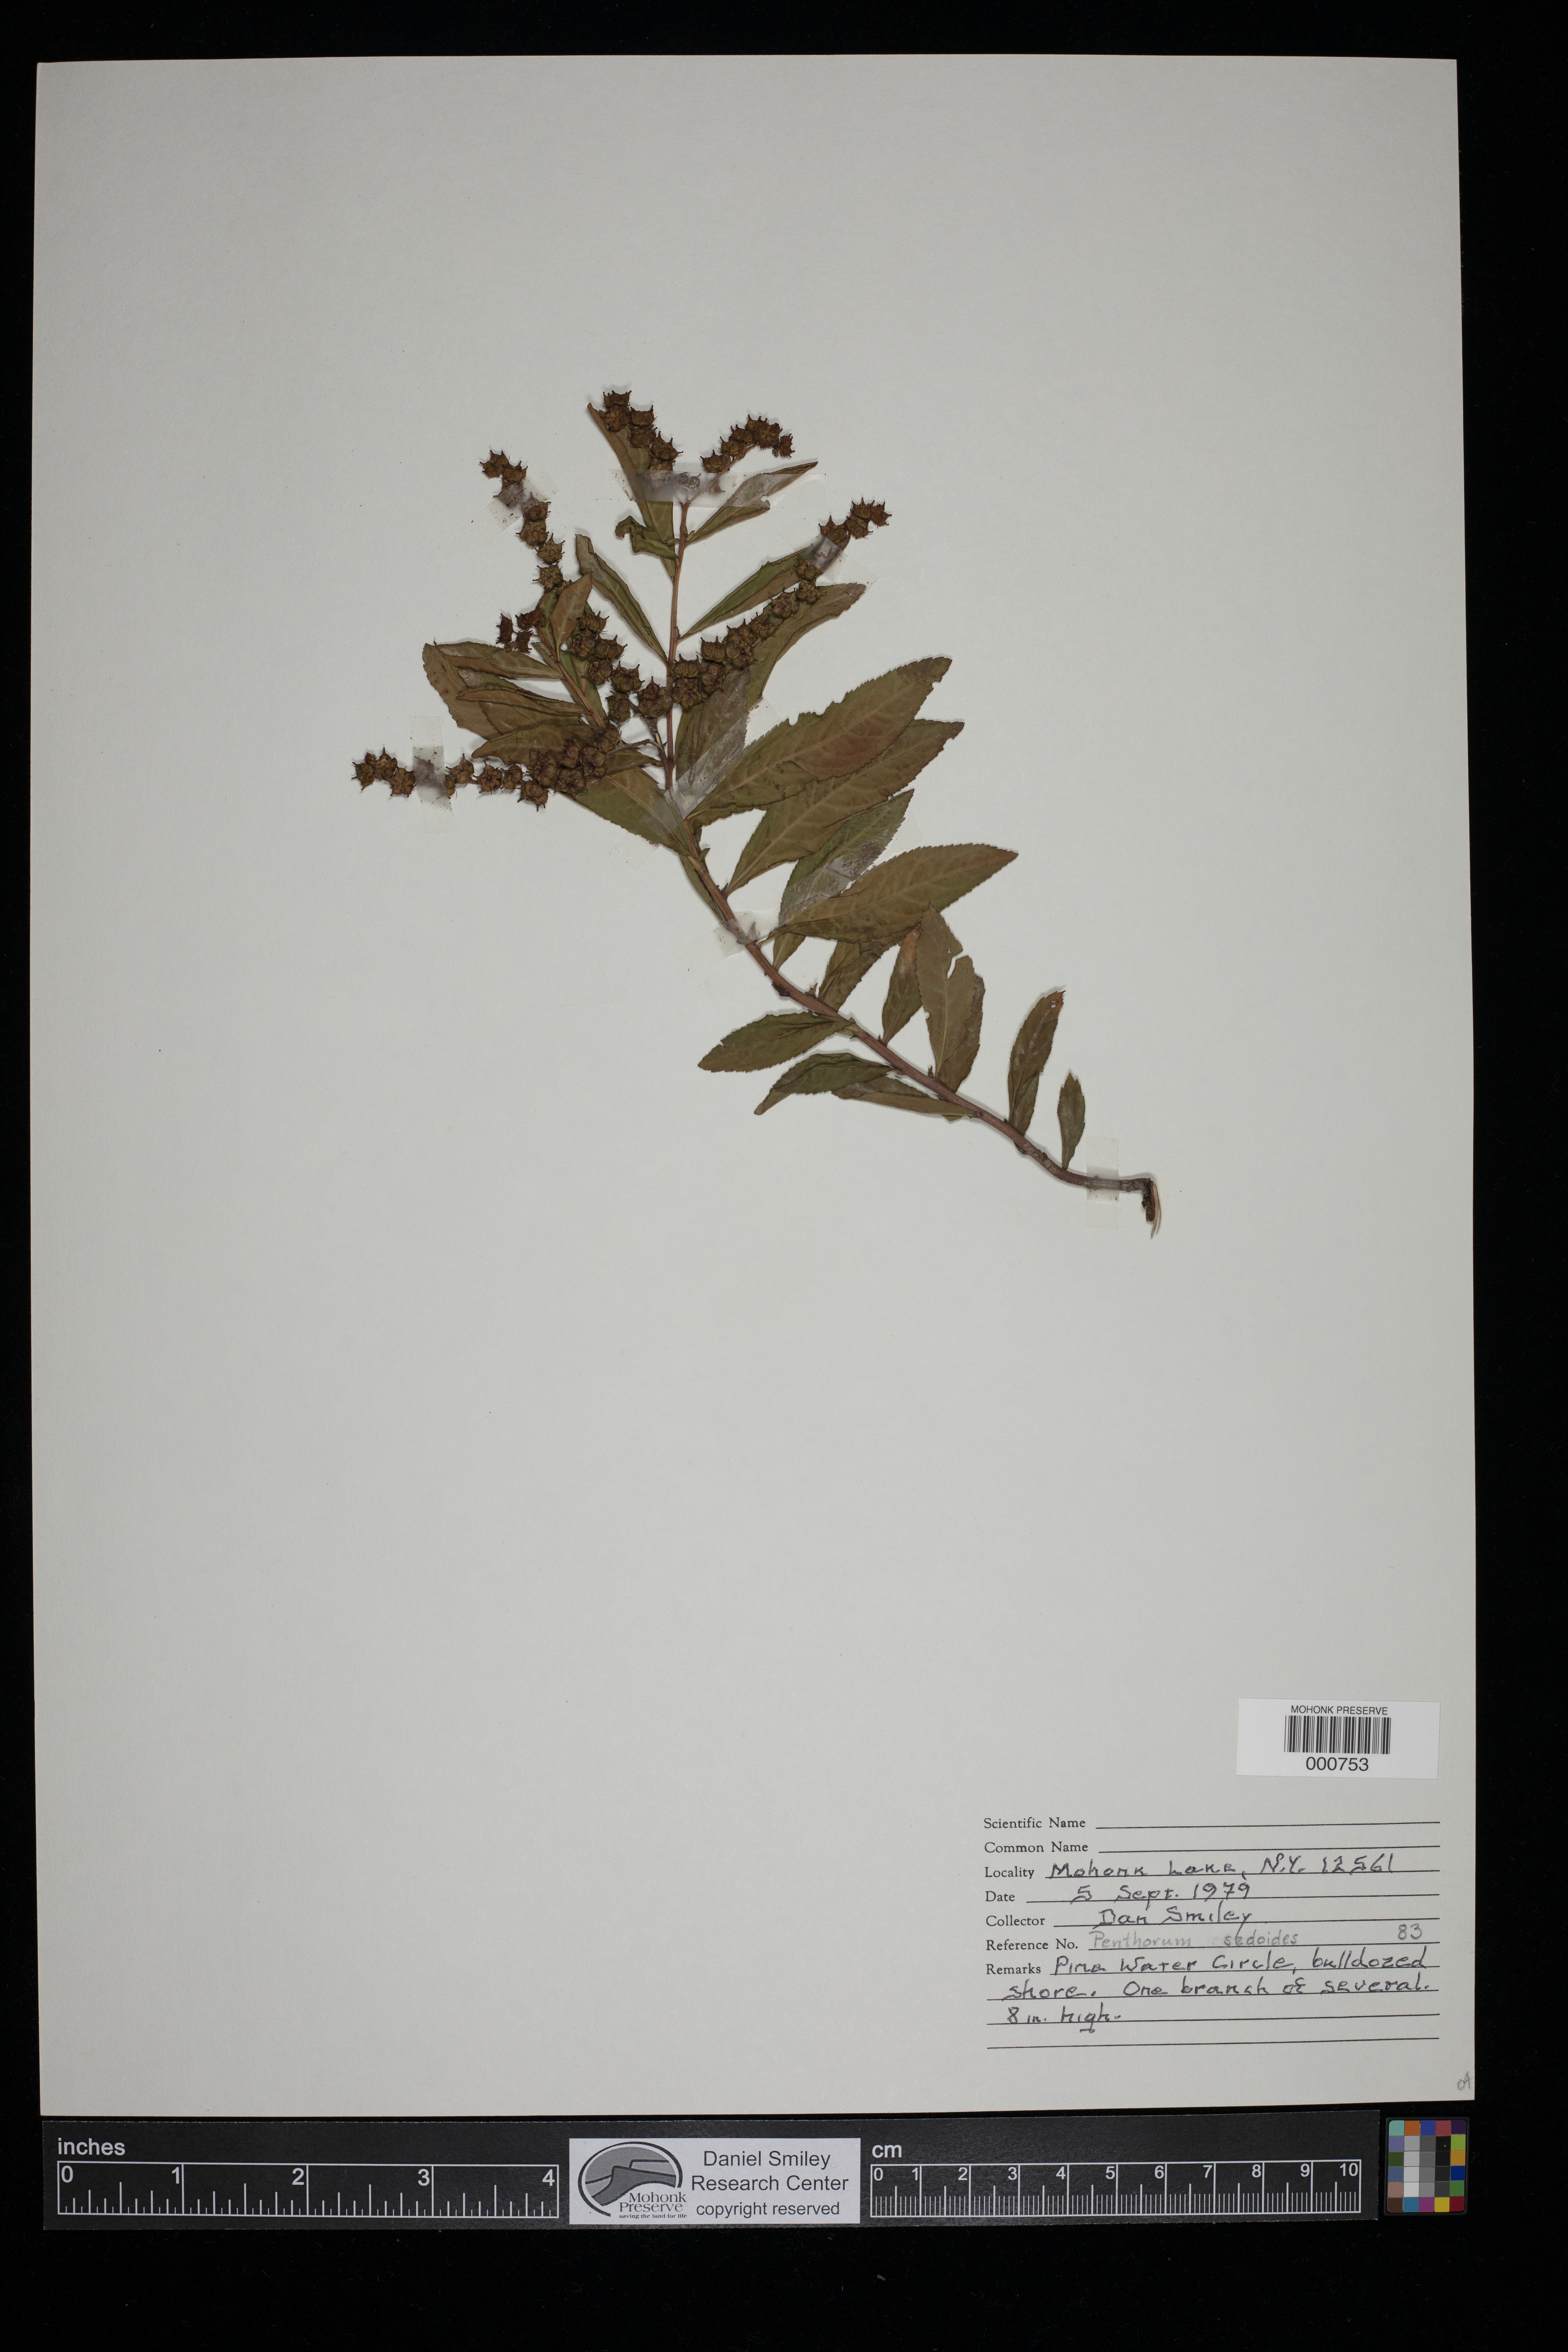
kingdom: Plantae
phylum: Tracheophyta
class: Magnoliopsida
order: Saxifragales
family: Penthoraceae
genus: Penthorum
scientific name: Penthorum sedoides
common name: Ditch stonecrop
